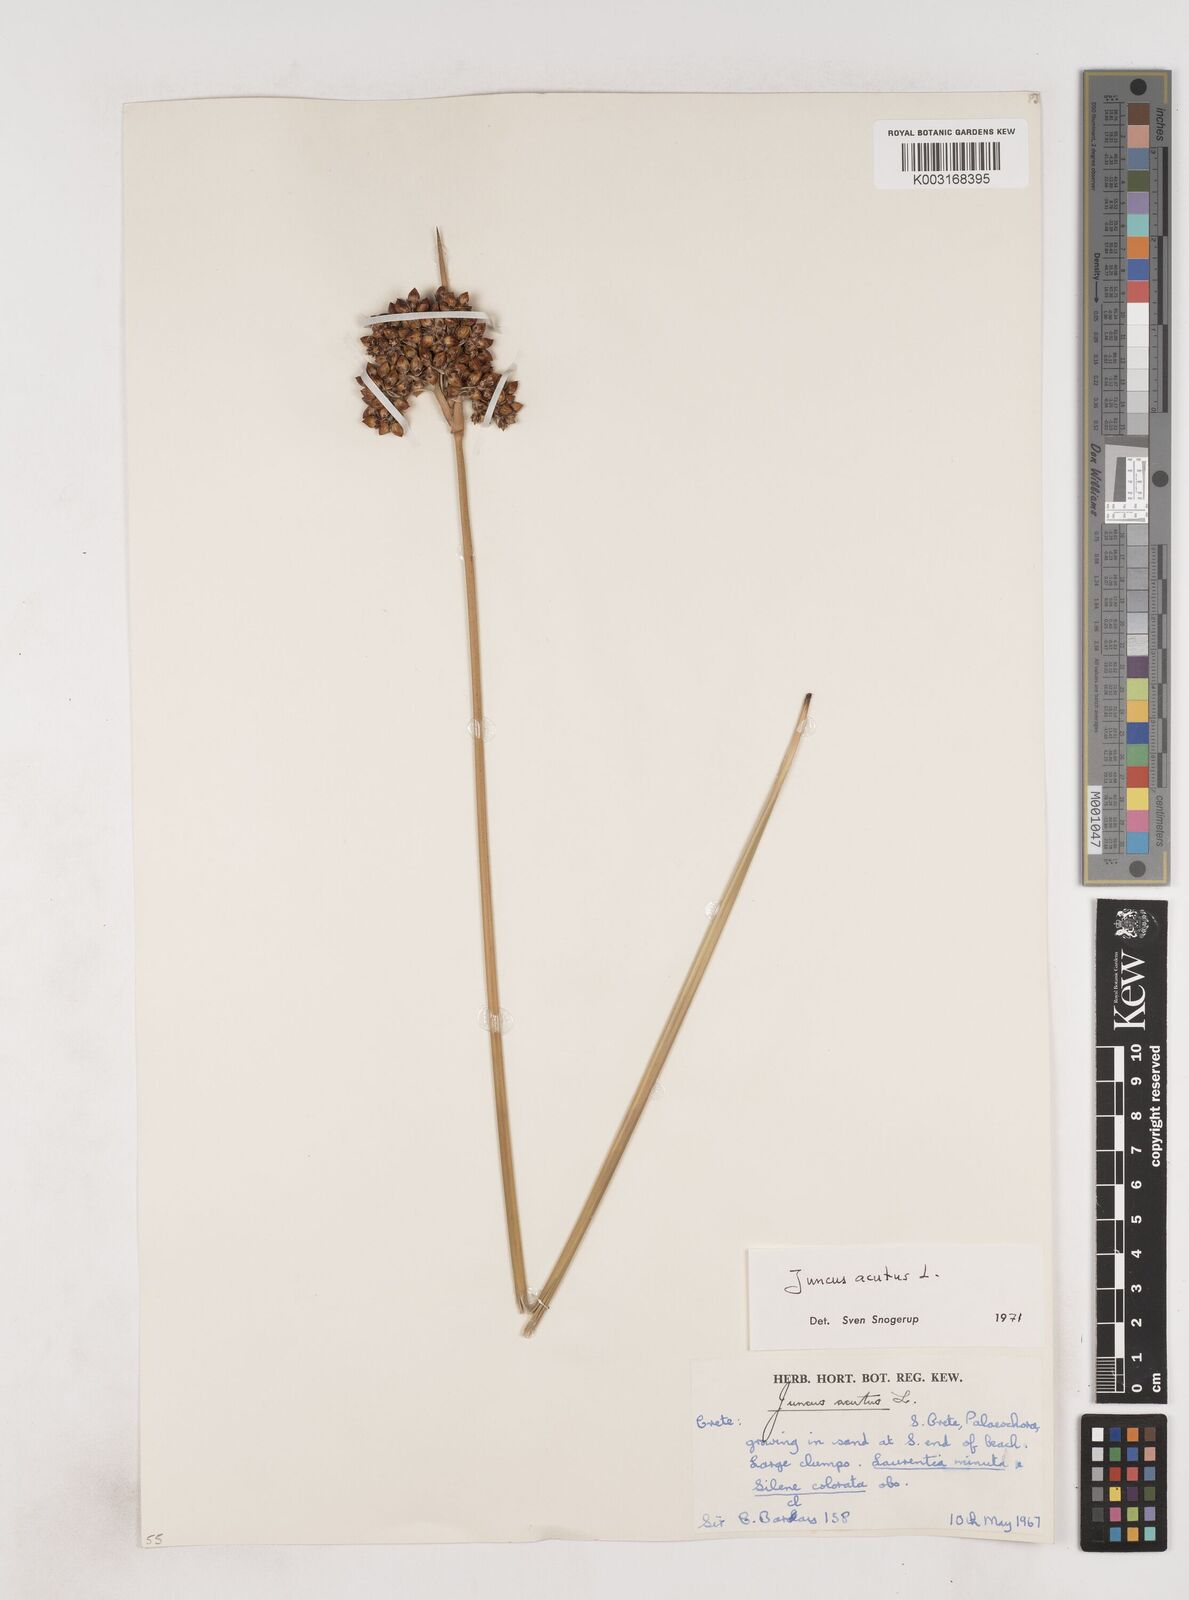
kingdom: Plantae
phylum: Tracheophyta
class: Liliopsida
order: Poales
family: Juncaceae
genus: Juncus
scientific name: Juncus acutus
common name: Sharp rush
